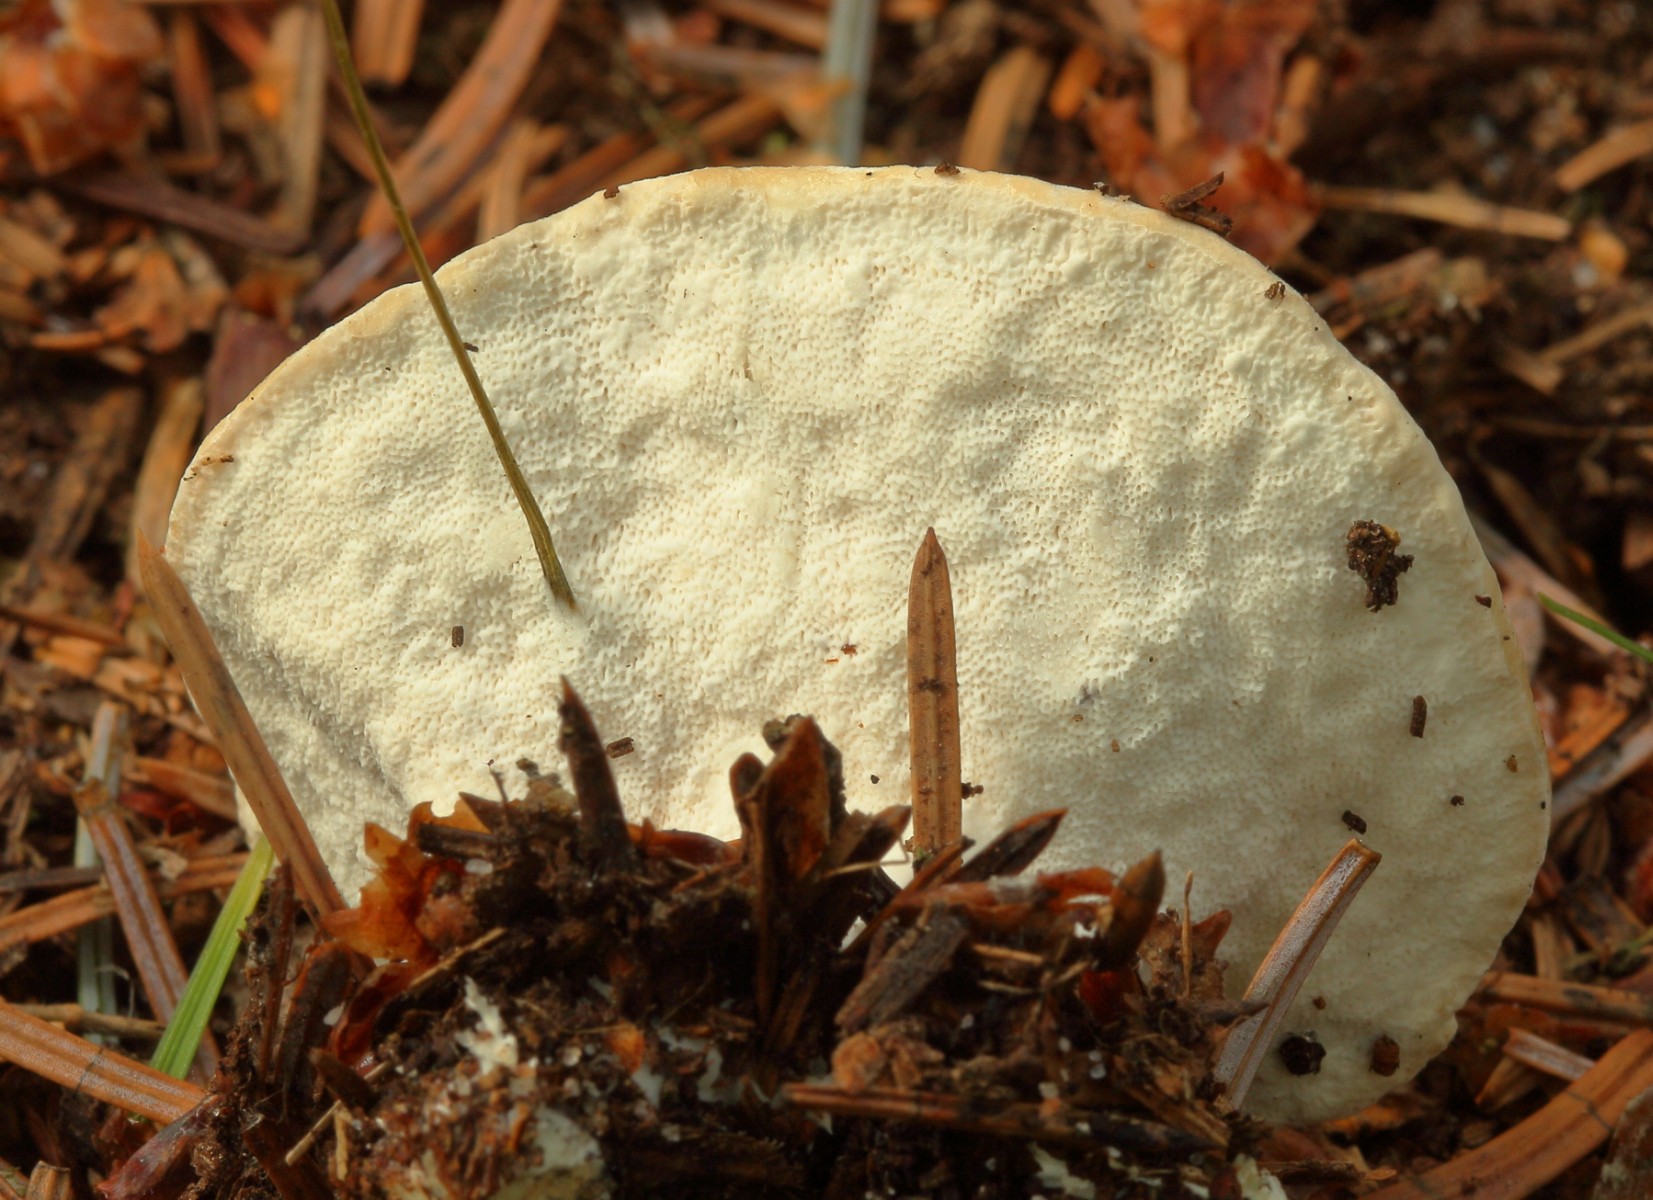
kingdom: Fungi
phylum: Basidiomycota
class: Agaricomycetes
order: Polyporales
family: Irpicaceae
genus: Leptoporus
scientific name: Leptoporus
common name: voksporesvamp
